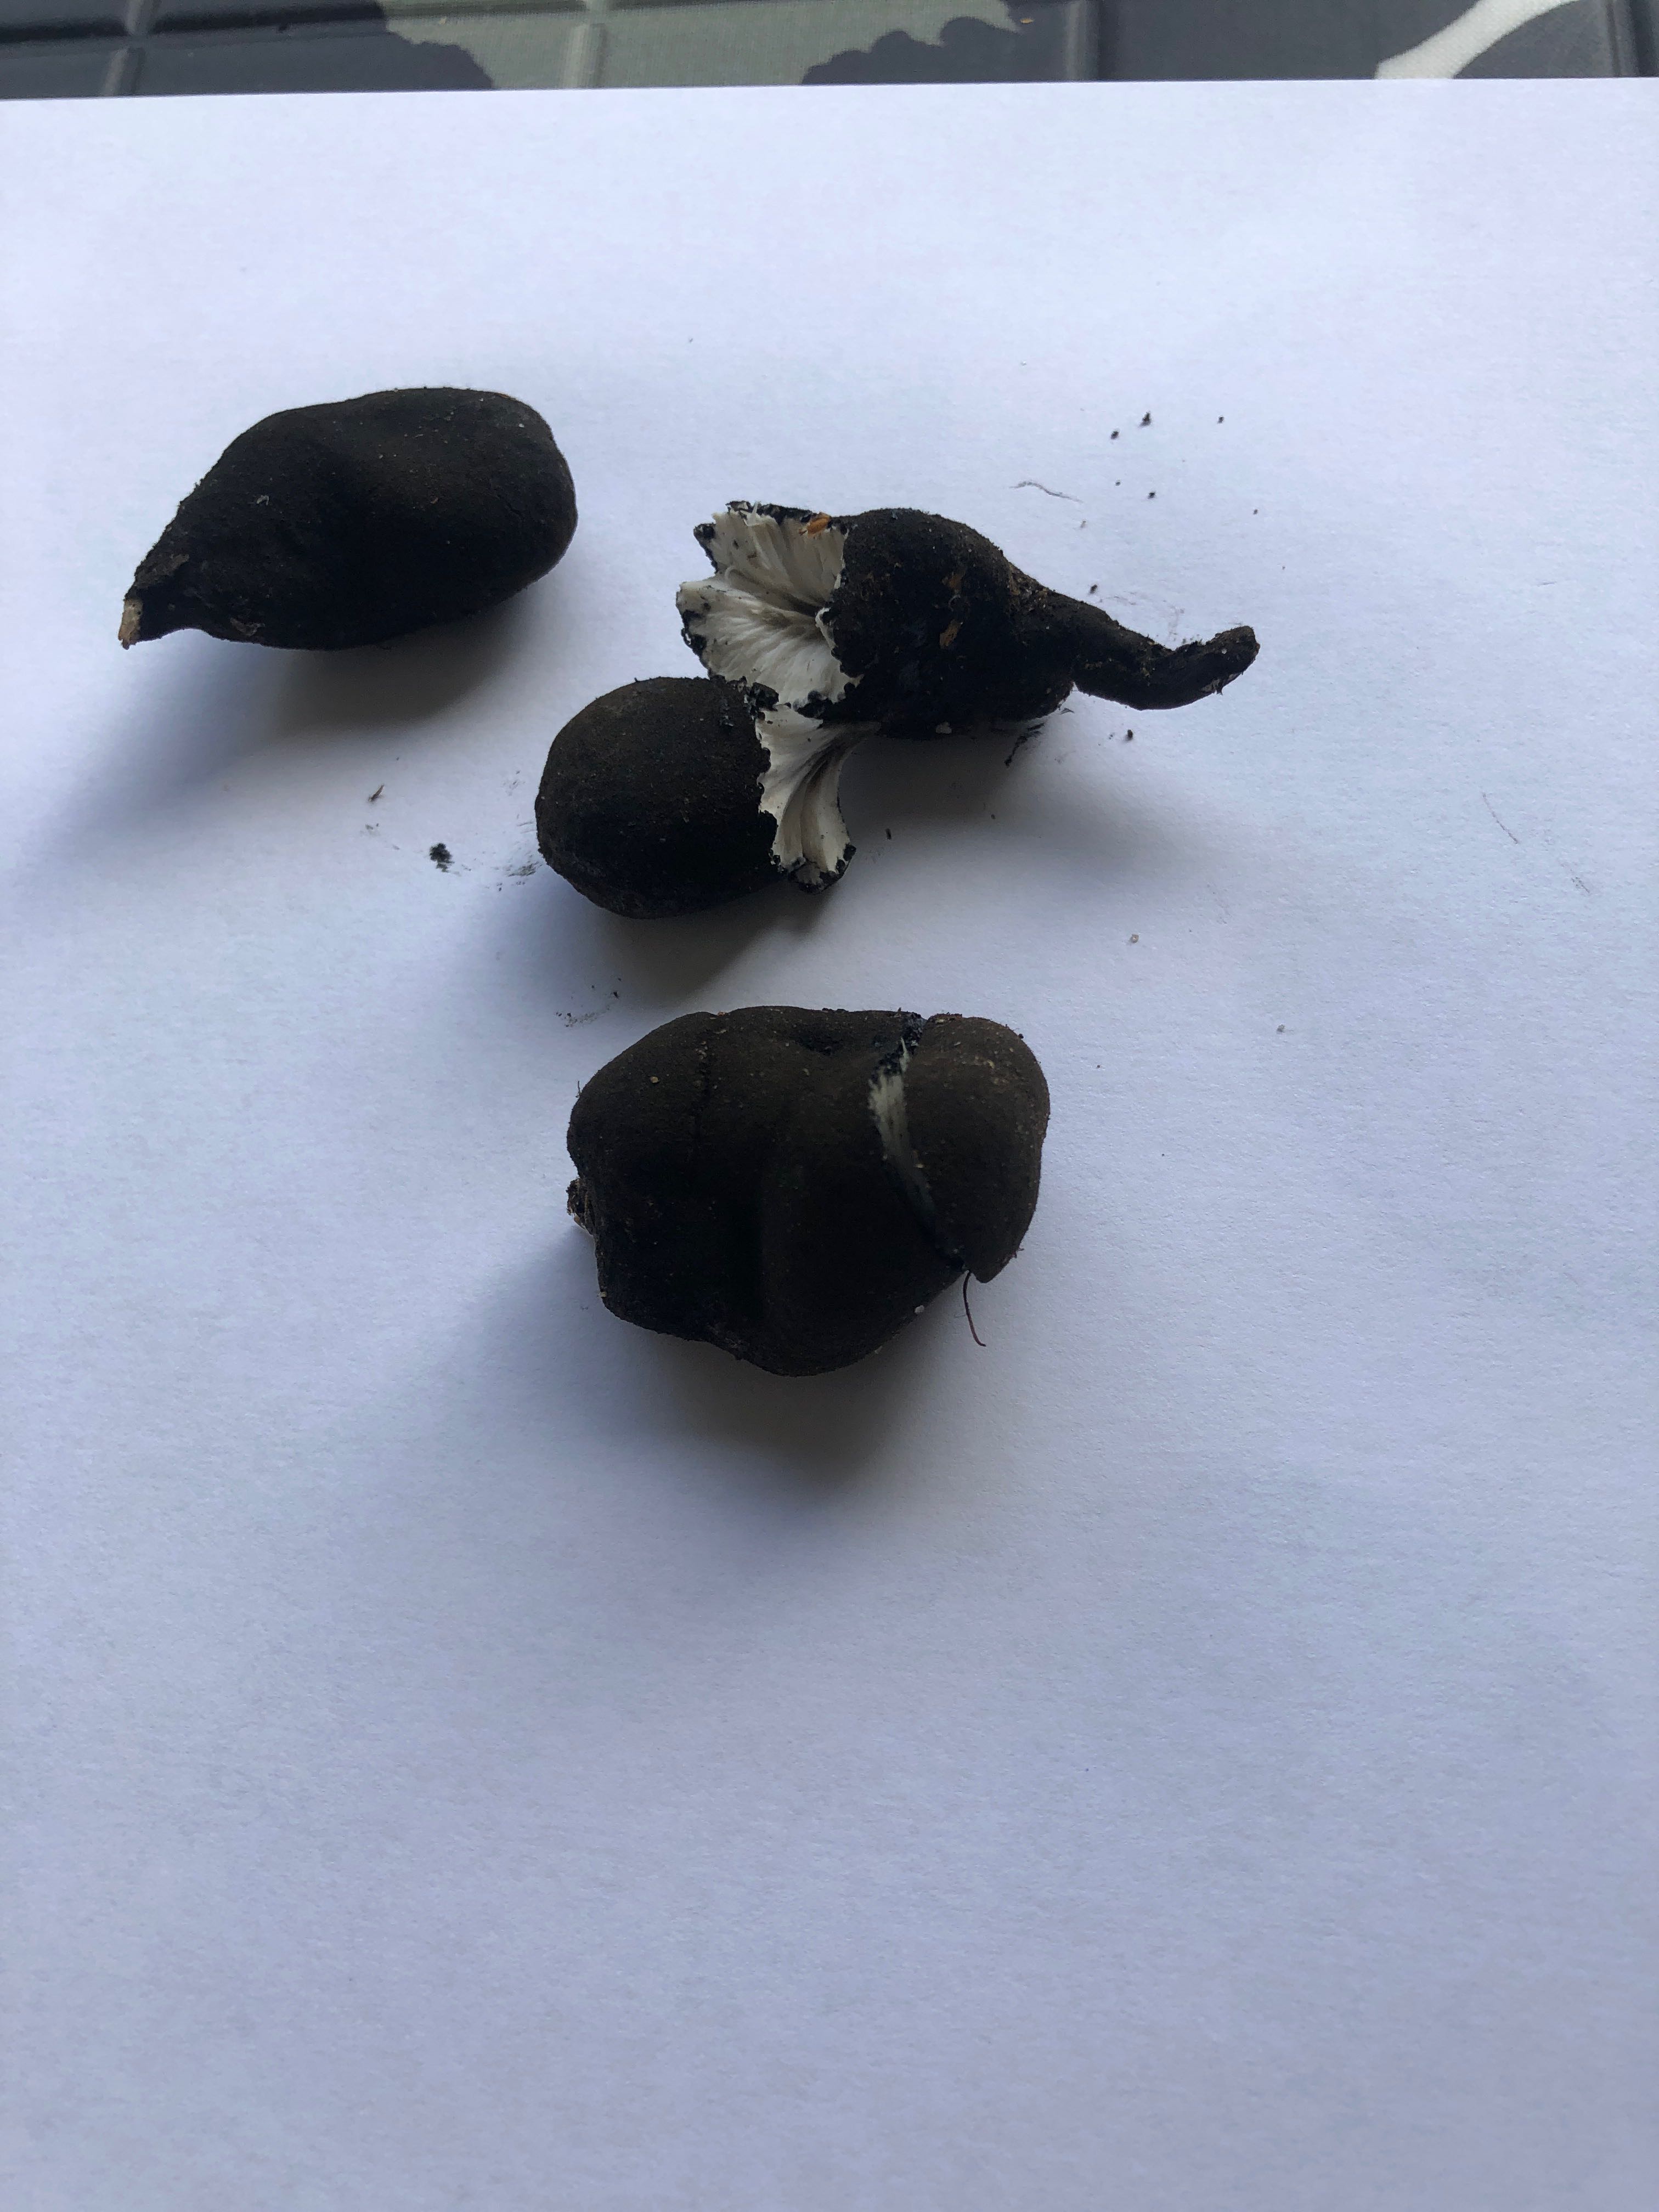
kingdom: Fungi
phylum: Ascomycota
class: Sordariomycetes
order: Xylariales
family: Xylariaceae
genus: Xylaria
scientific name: Xylaria polymorpha
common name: kølle-stødsvamp
